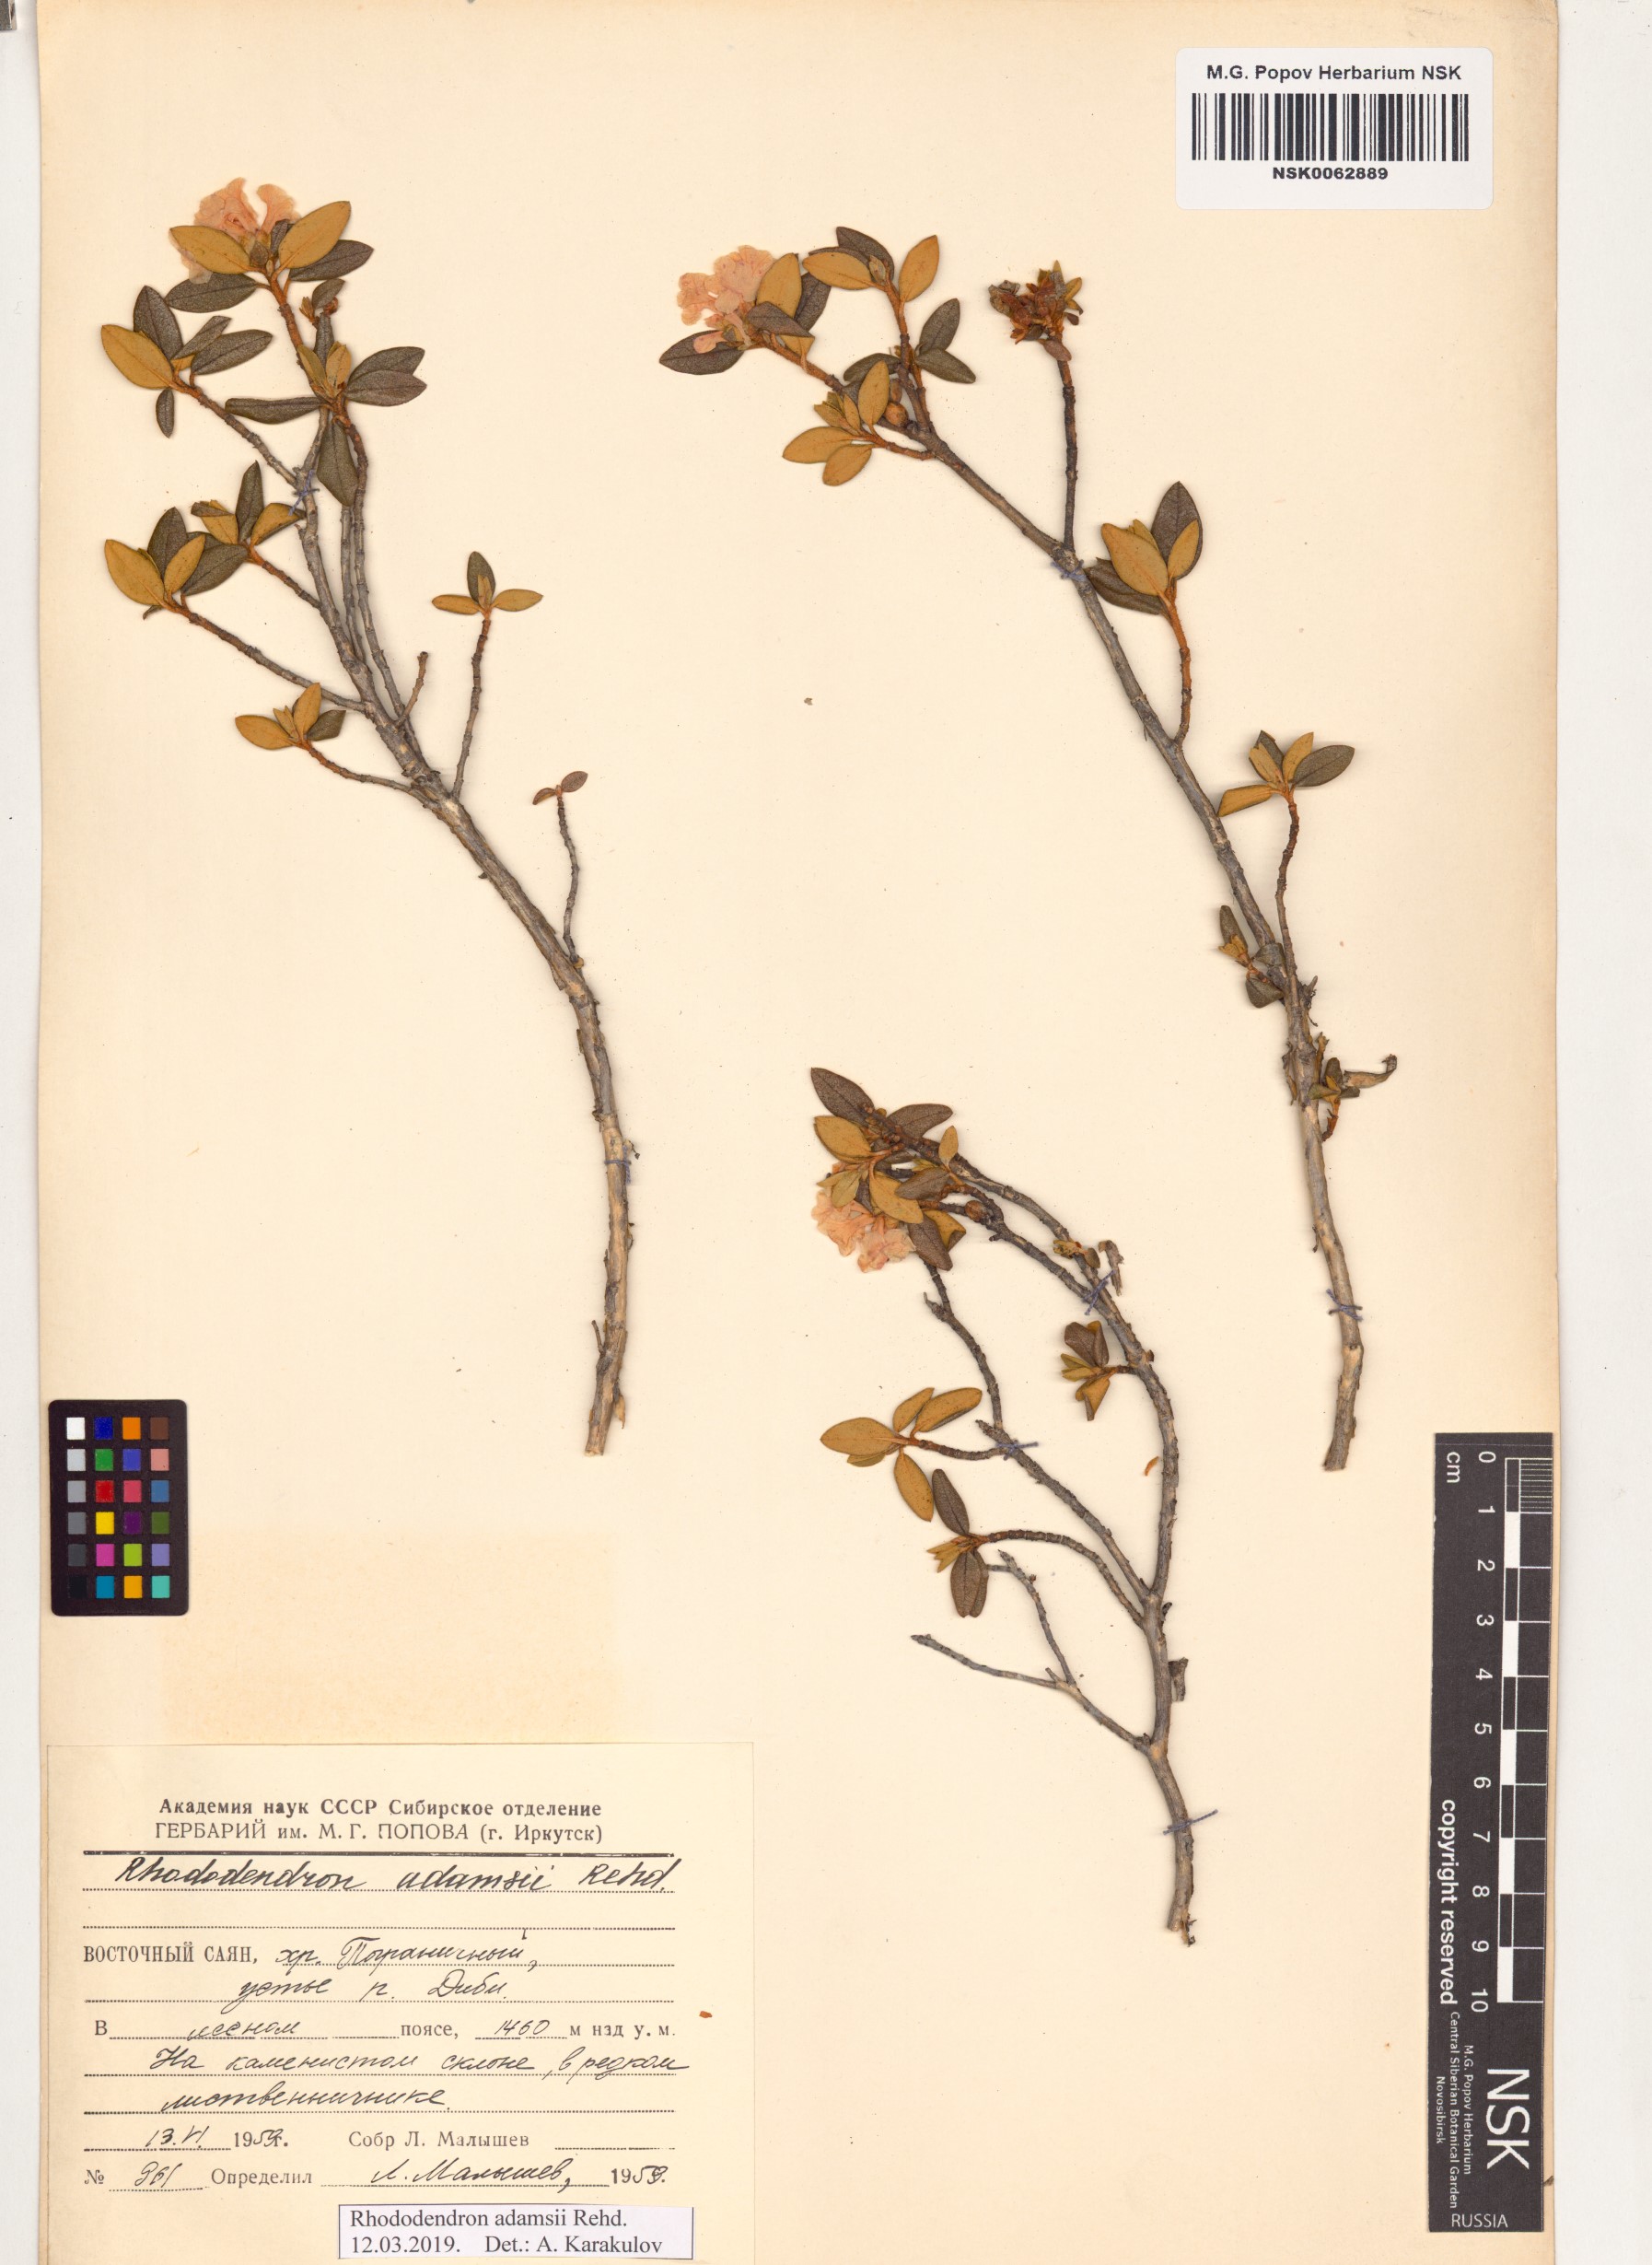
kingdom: Plantae
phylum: Tracheophyta
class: Magnoliopsida
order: Ericales
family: Ericaceae
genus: Rhododendron
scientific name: Rhododendron adamsii
